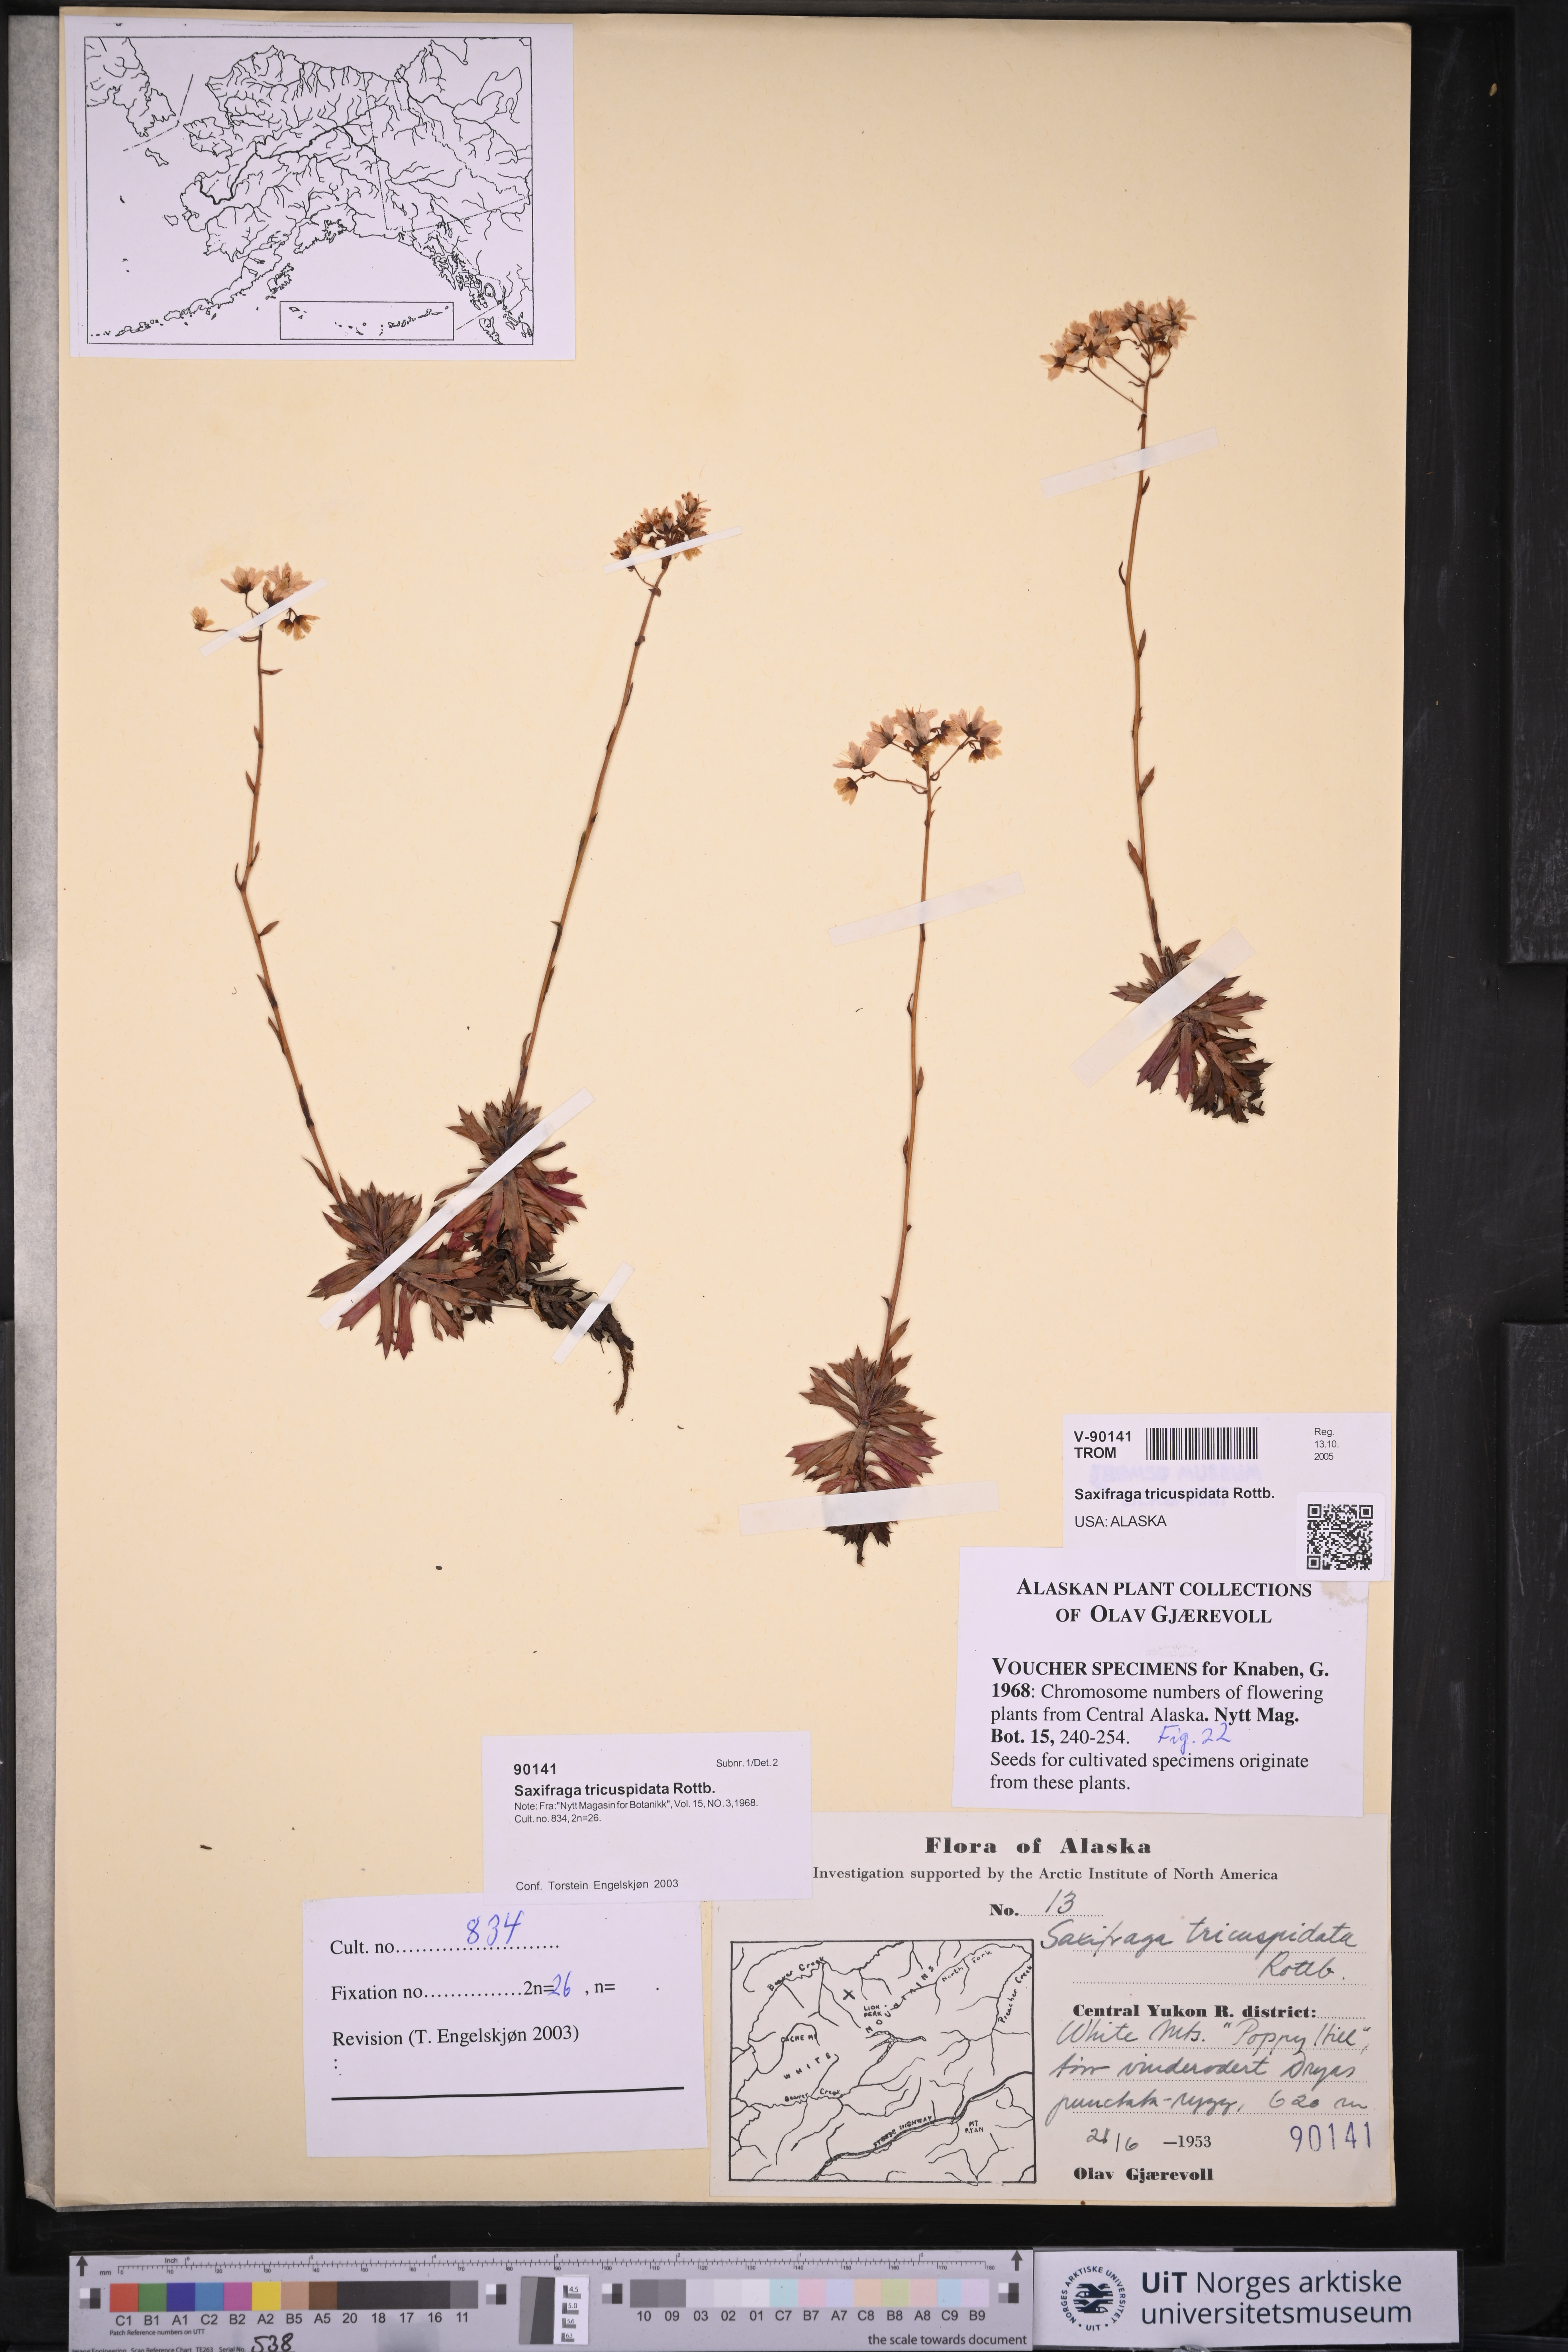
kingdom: Plantae
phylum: Tracheophyta
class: Magnoliopsida
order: Saxifragales
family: Saxifragaceae
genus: Saxifraga
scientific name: Saxifraga tricuspidata
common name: Prickly saxifrage
